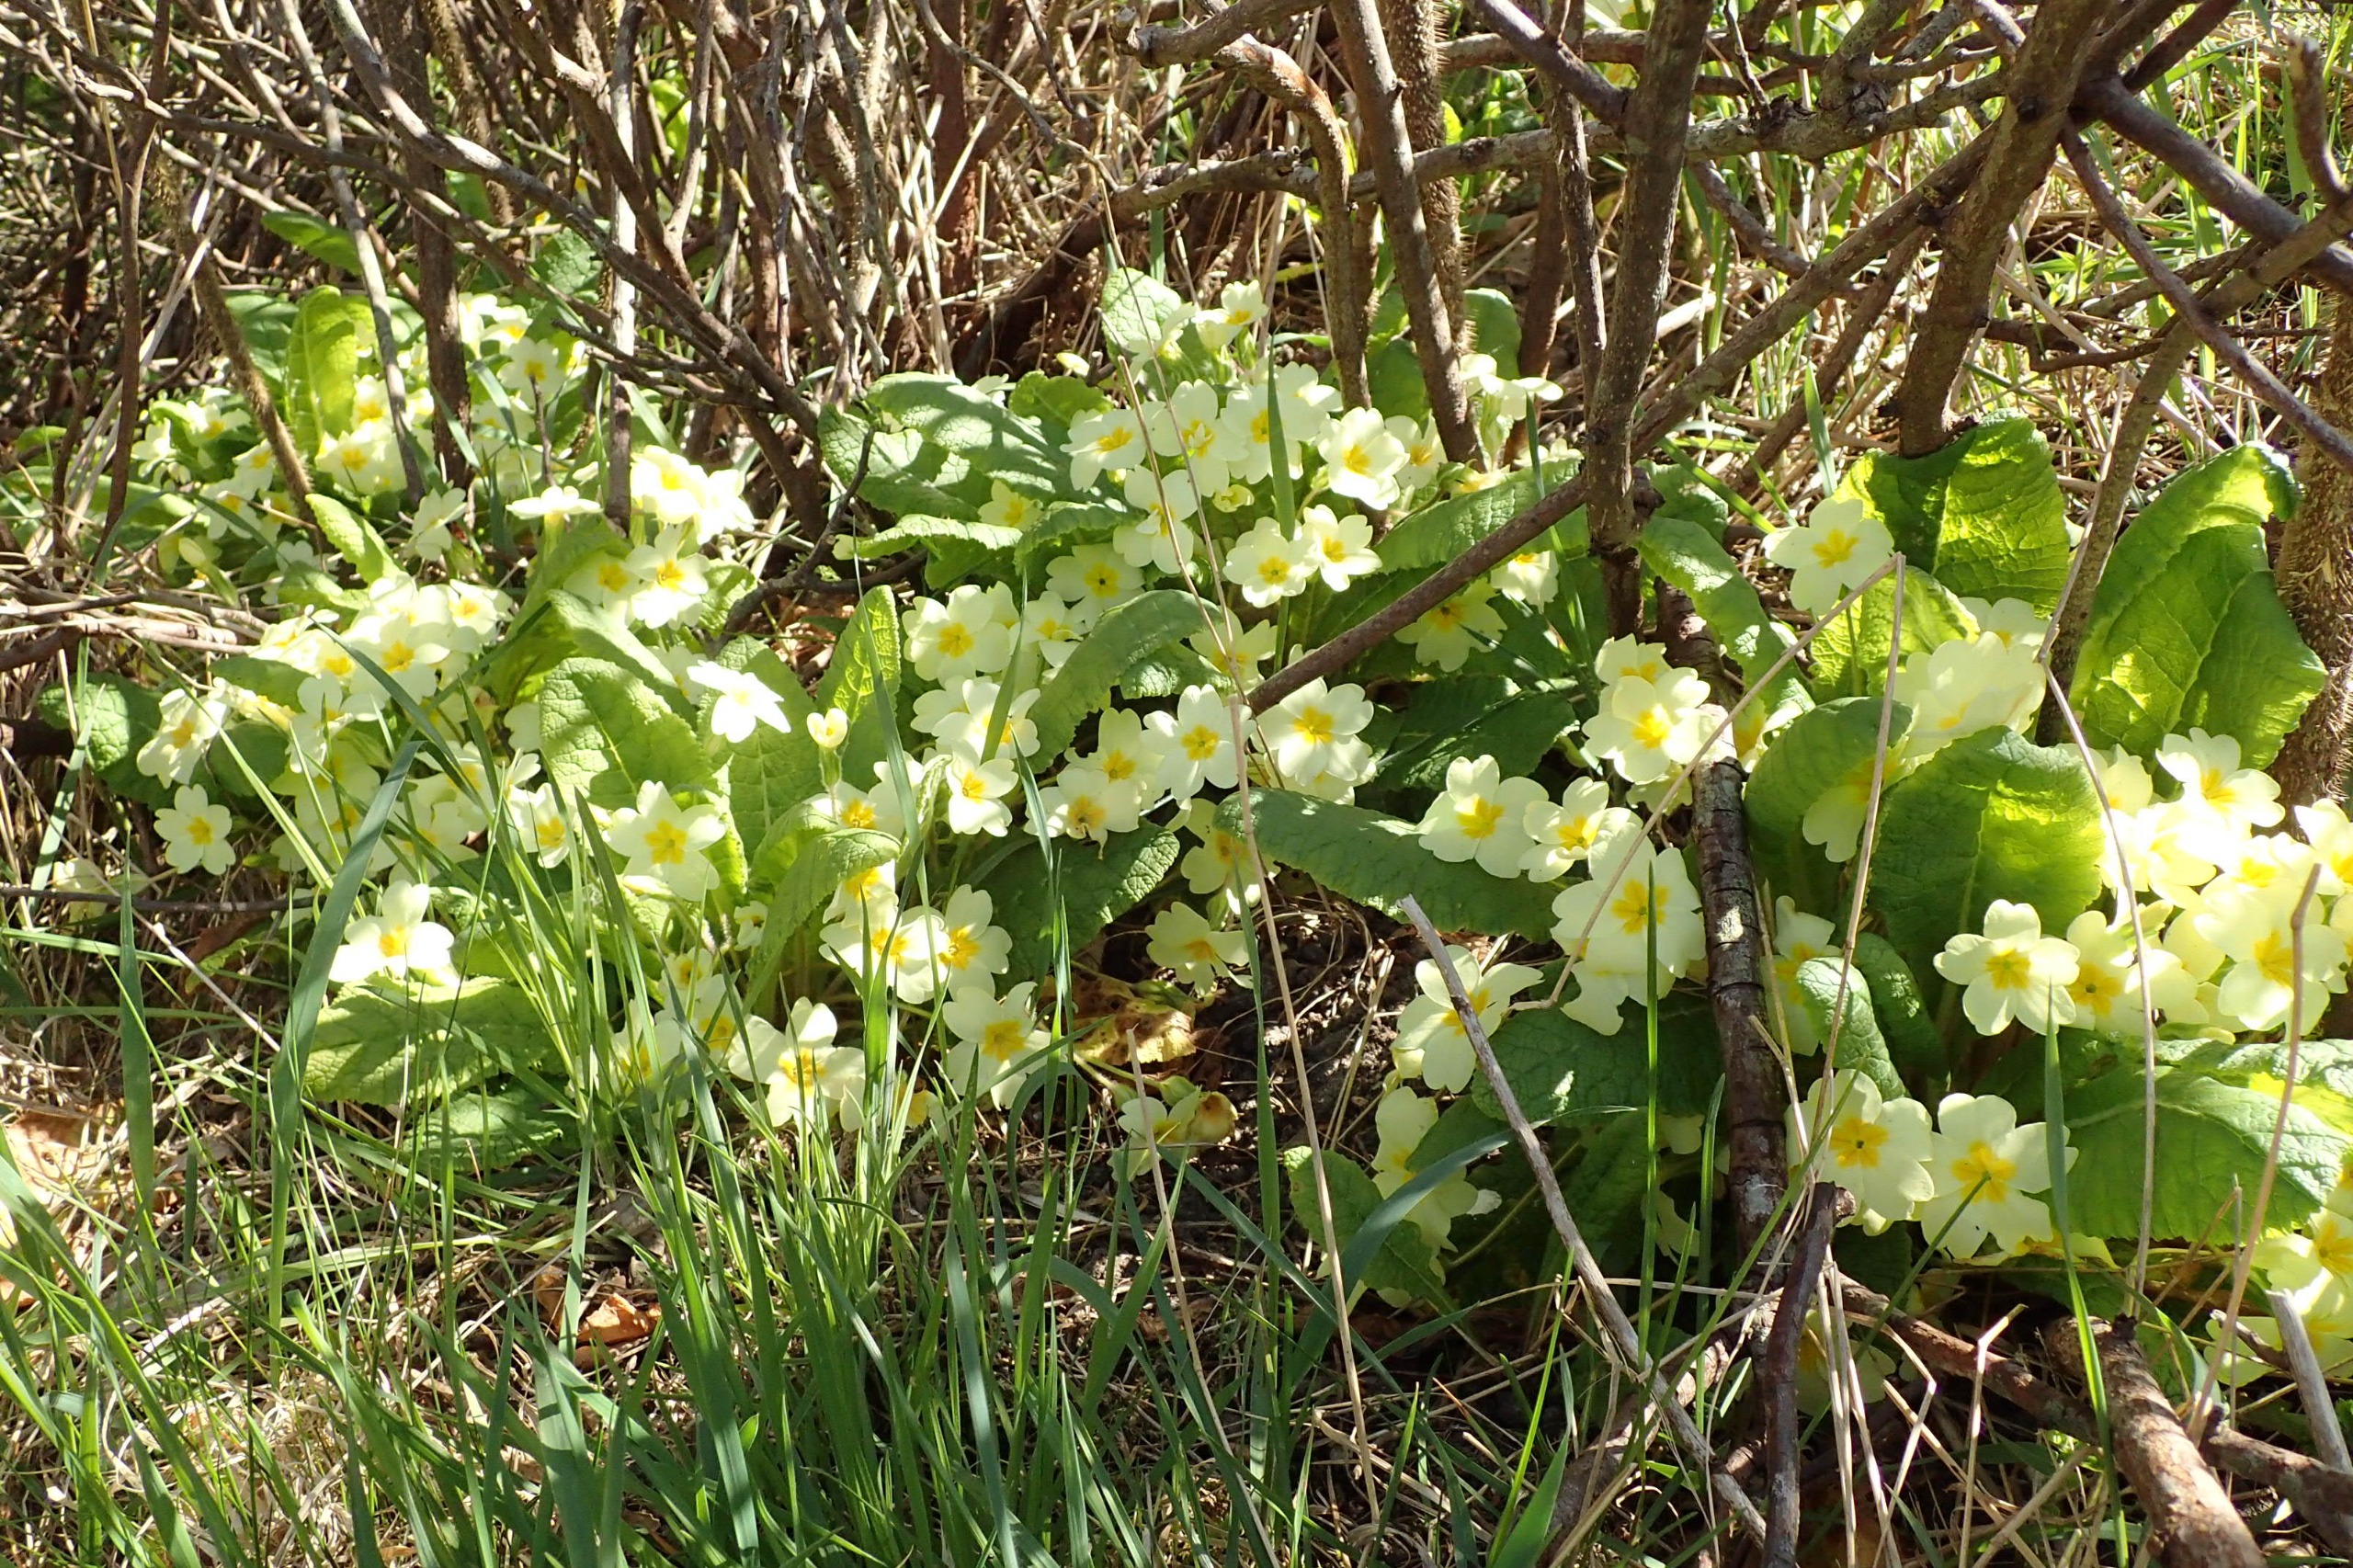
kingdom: Plantae
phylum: Tracheophyta
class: Magnoliopsida
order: Ericales
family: Primulaceae
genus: Primula
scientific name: Primula vulgaris
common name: Storblomstret kodriver
